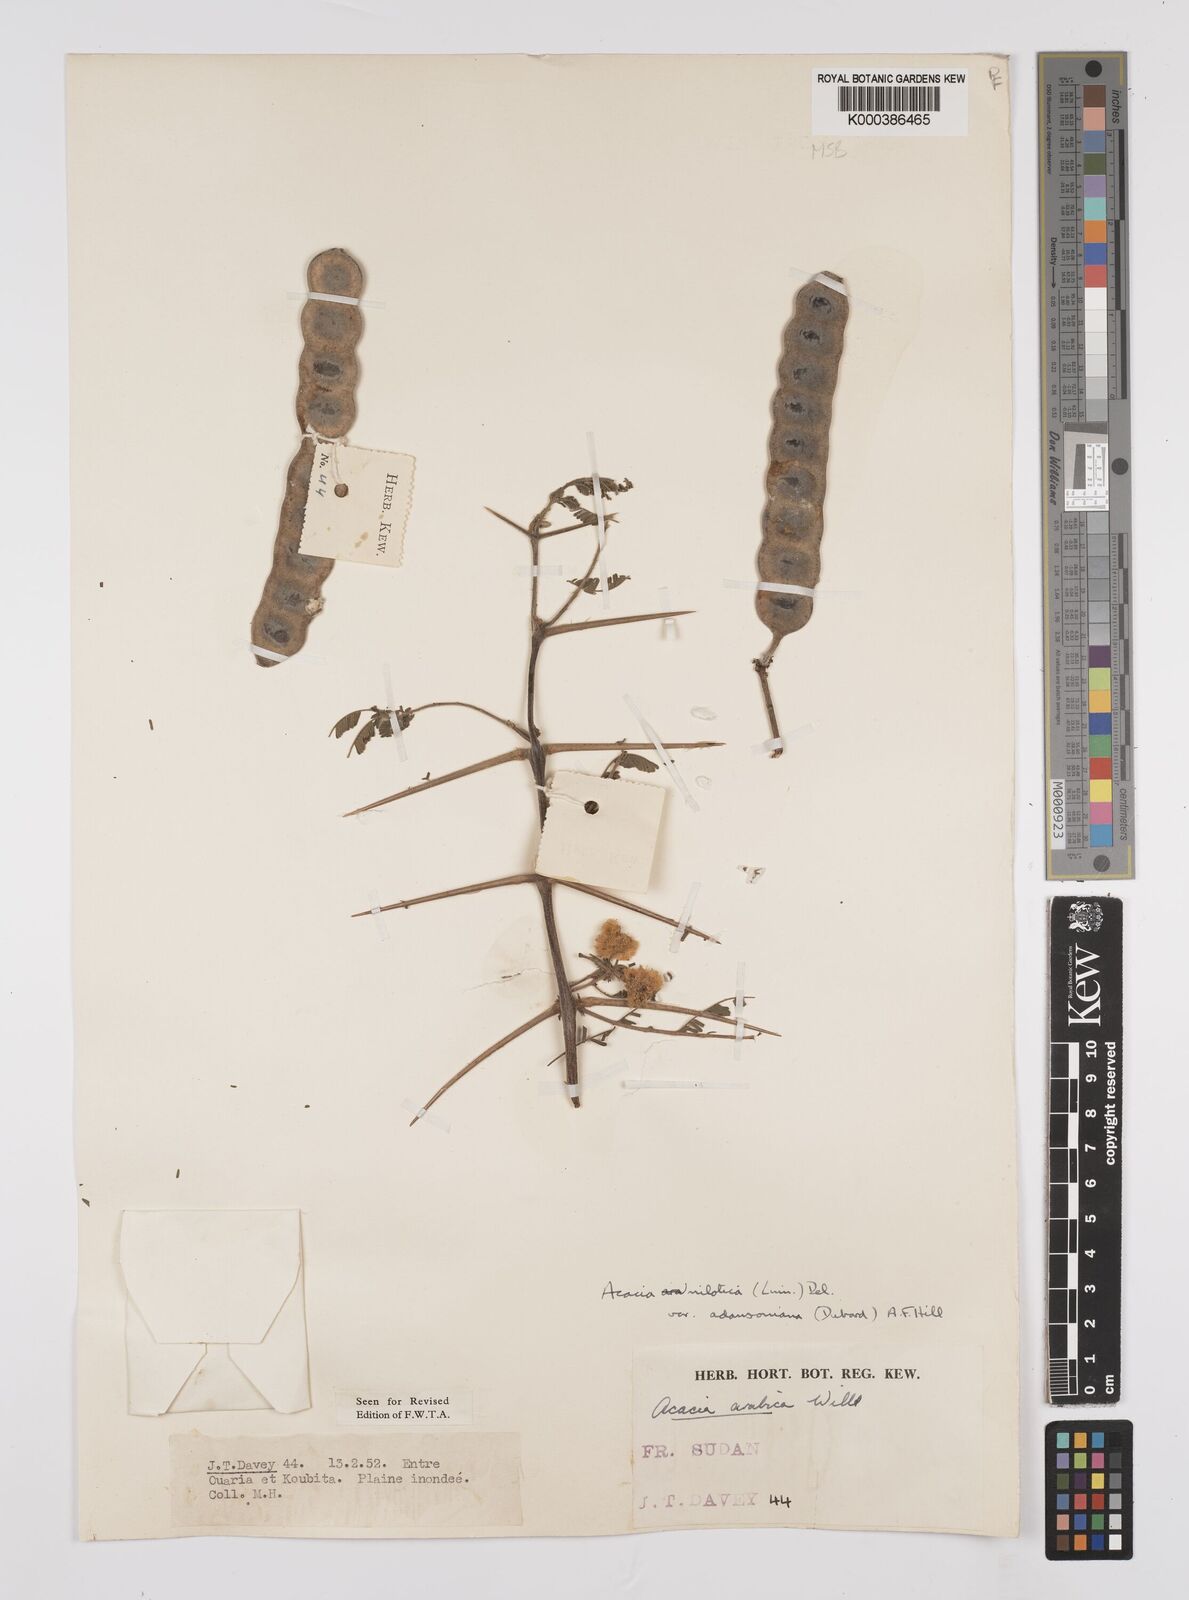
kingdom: Plantae
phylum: Tracheophyta
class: Magnoliopsida
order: Fabales
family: Fabaceae
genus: Vachellia
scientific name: Vachellia nilotica
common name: Arabic gumtree
